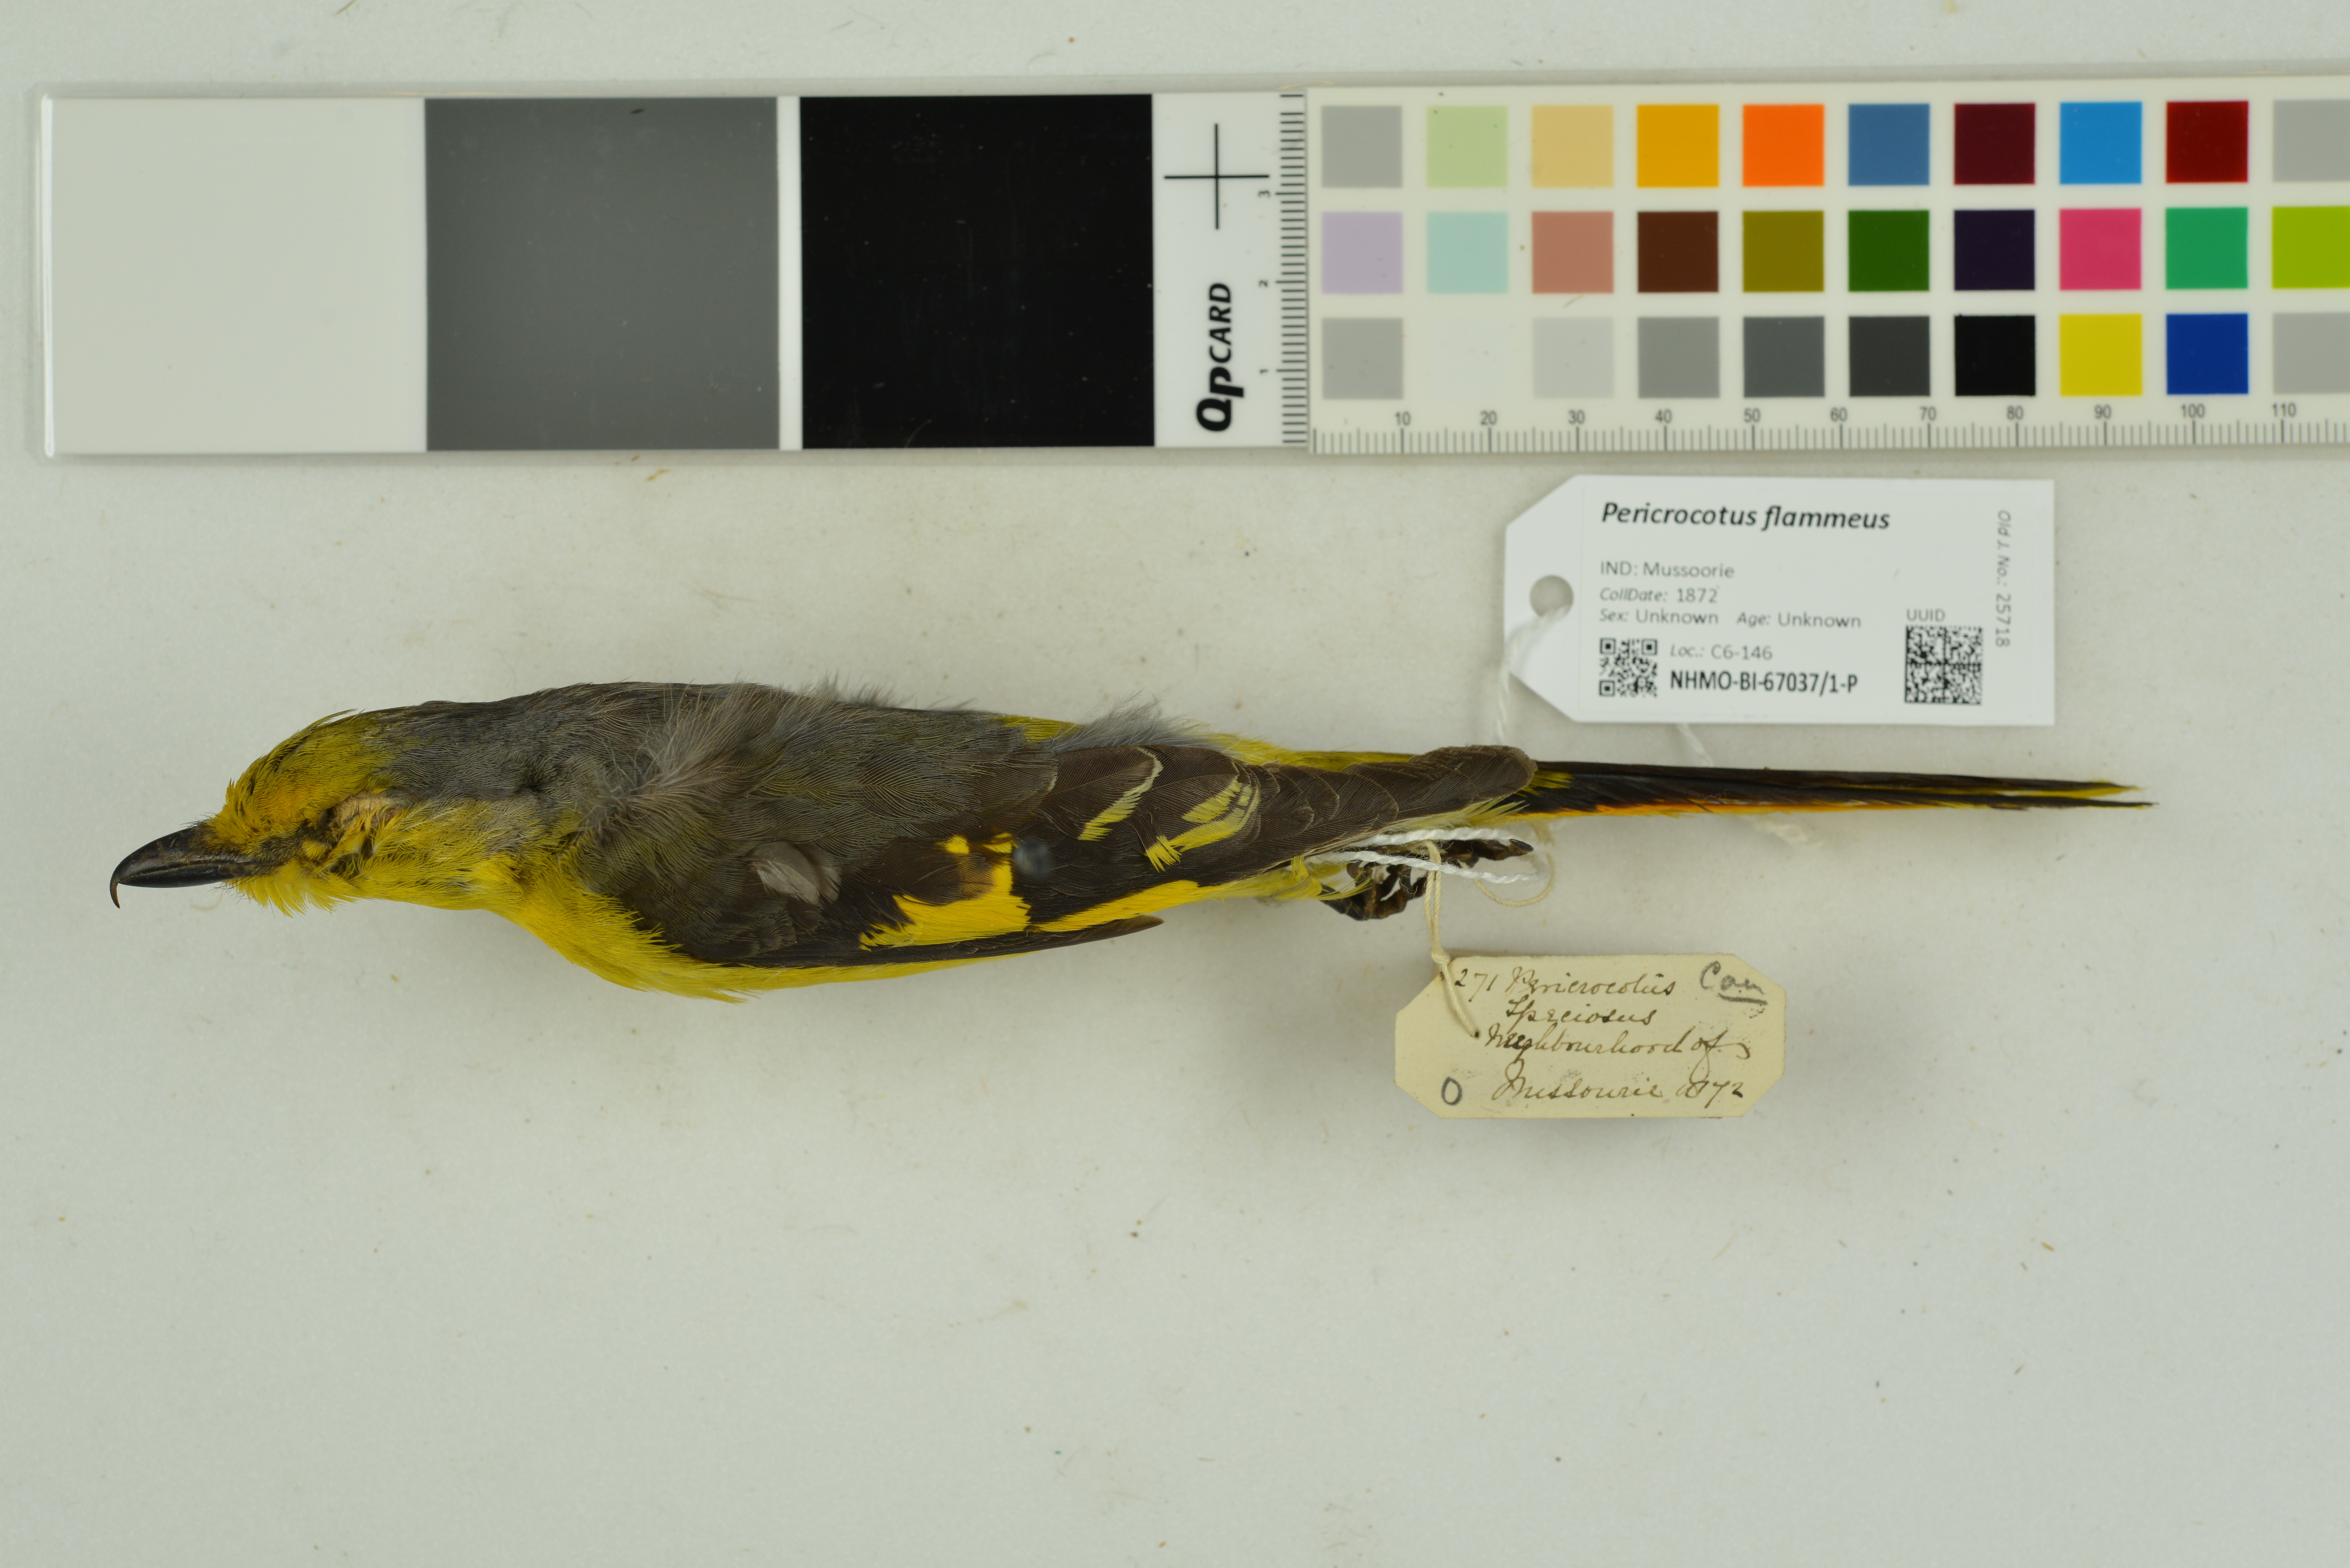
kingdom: Animalia
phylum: Chordata
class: Aves
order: Passeriformes
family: Campephagidae
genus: Pericrocotus
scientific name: Pericrocotus flammeus
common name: Orange minivet
